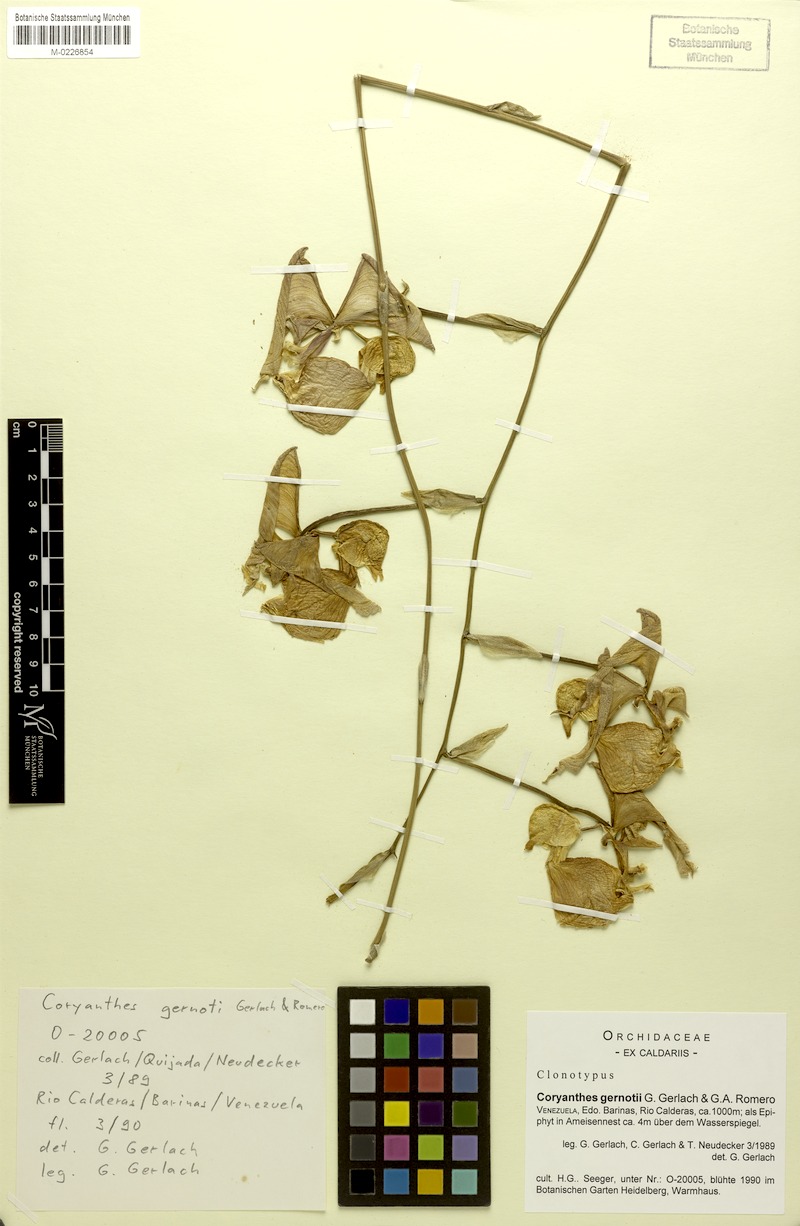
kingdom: Plantae
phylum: Tracheophyta
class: Liliopsida
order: Asparagales
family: Orchidaceae
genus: Coryanthes
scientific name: Coryanthes gernotii
